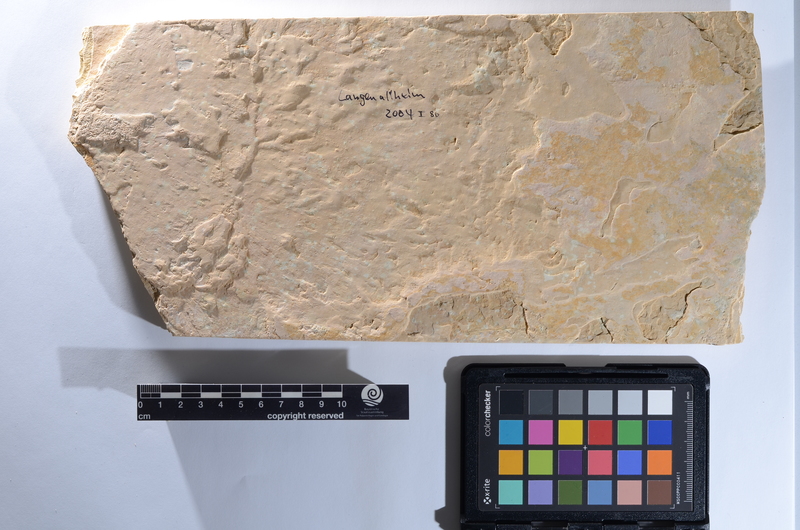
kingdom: Animalia
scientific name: Animalia
